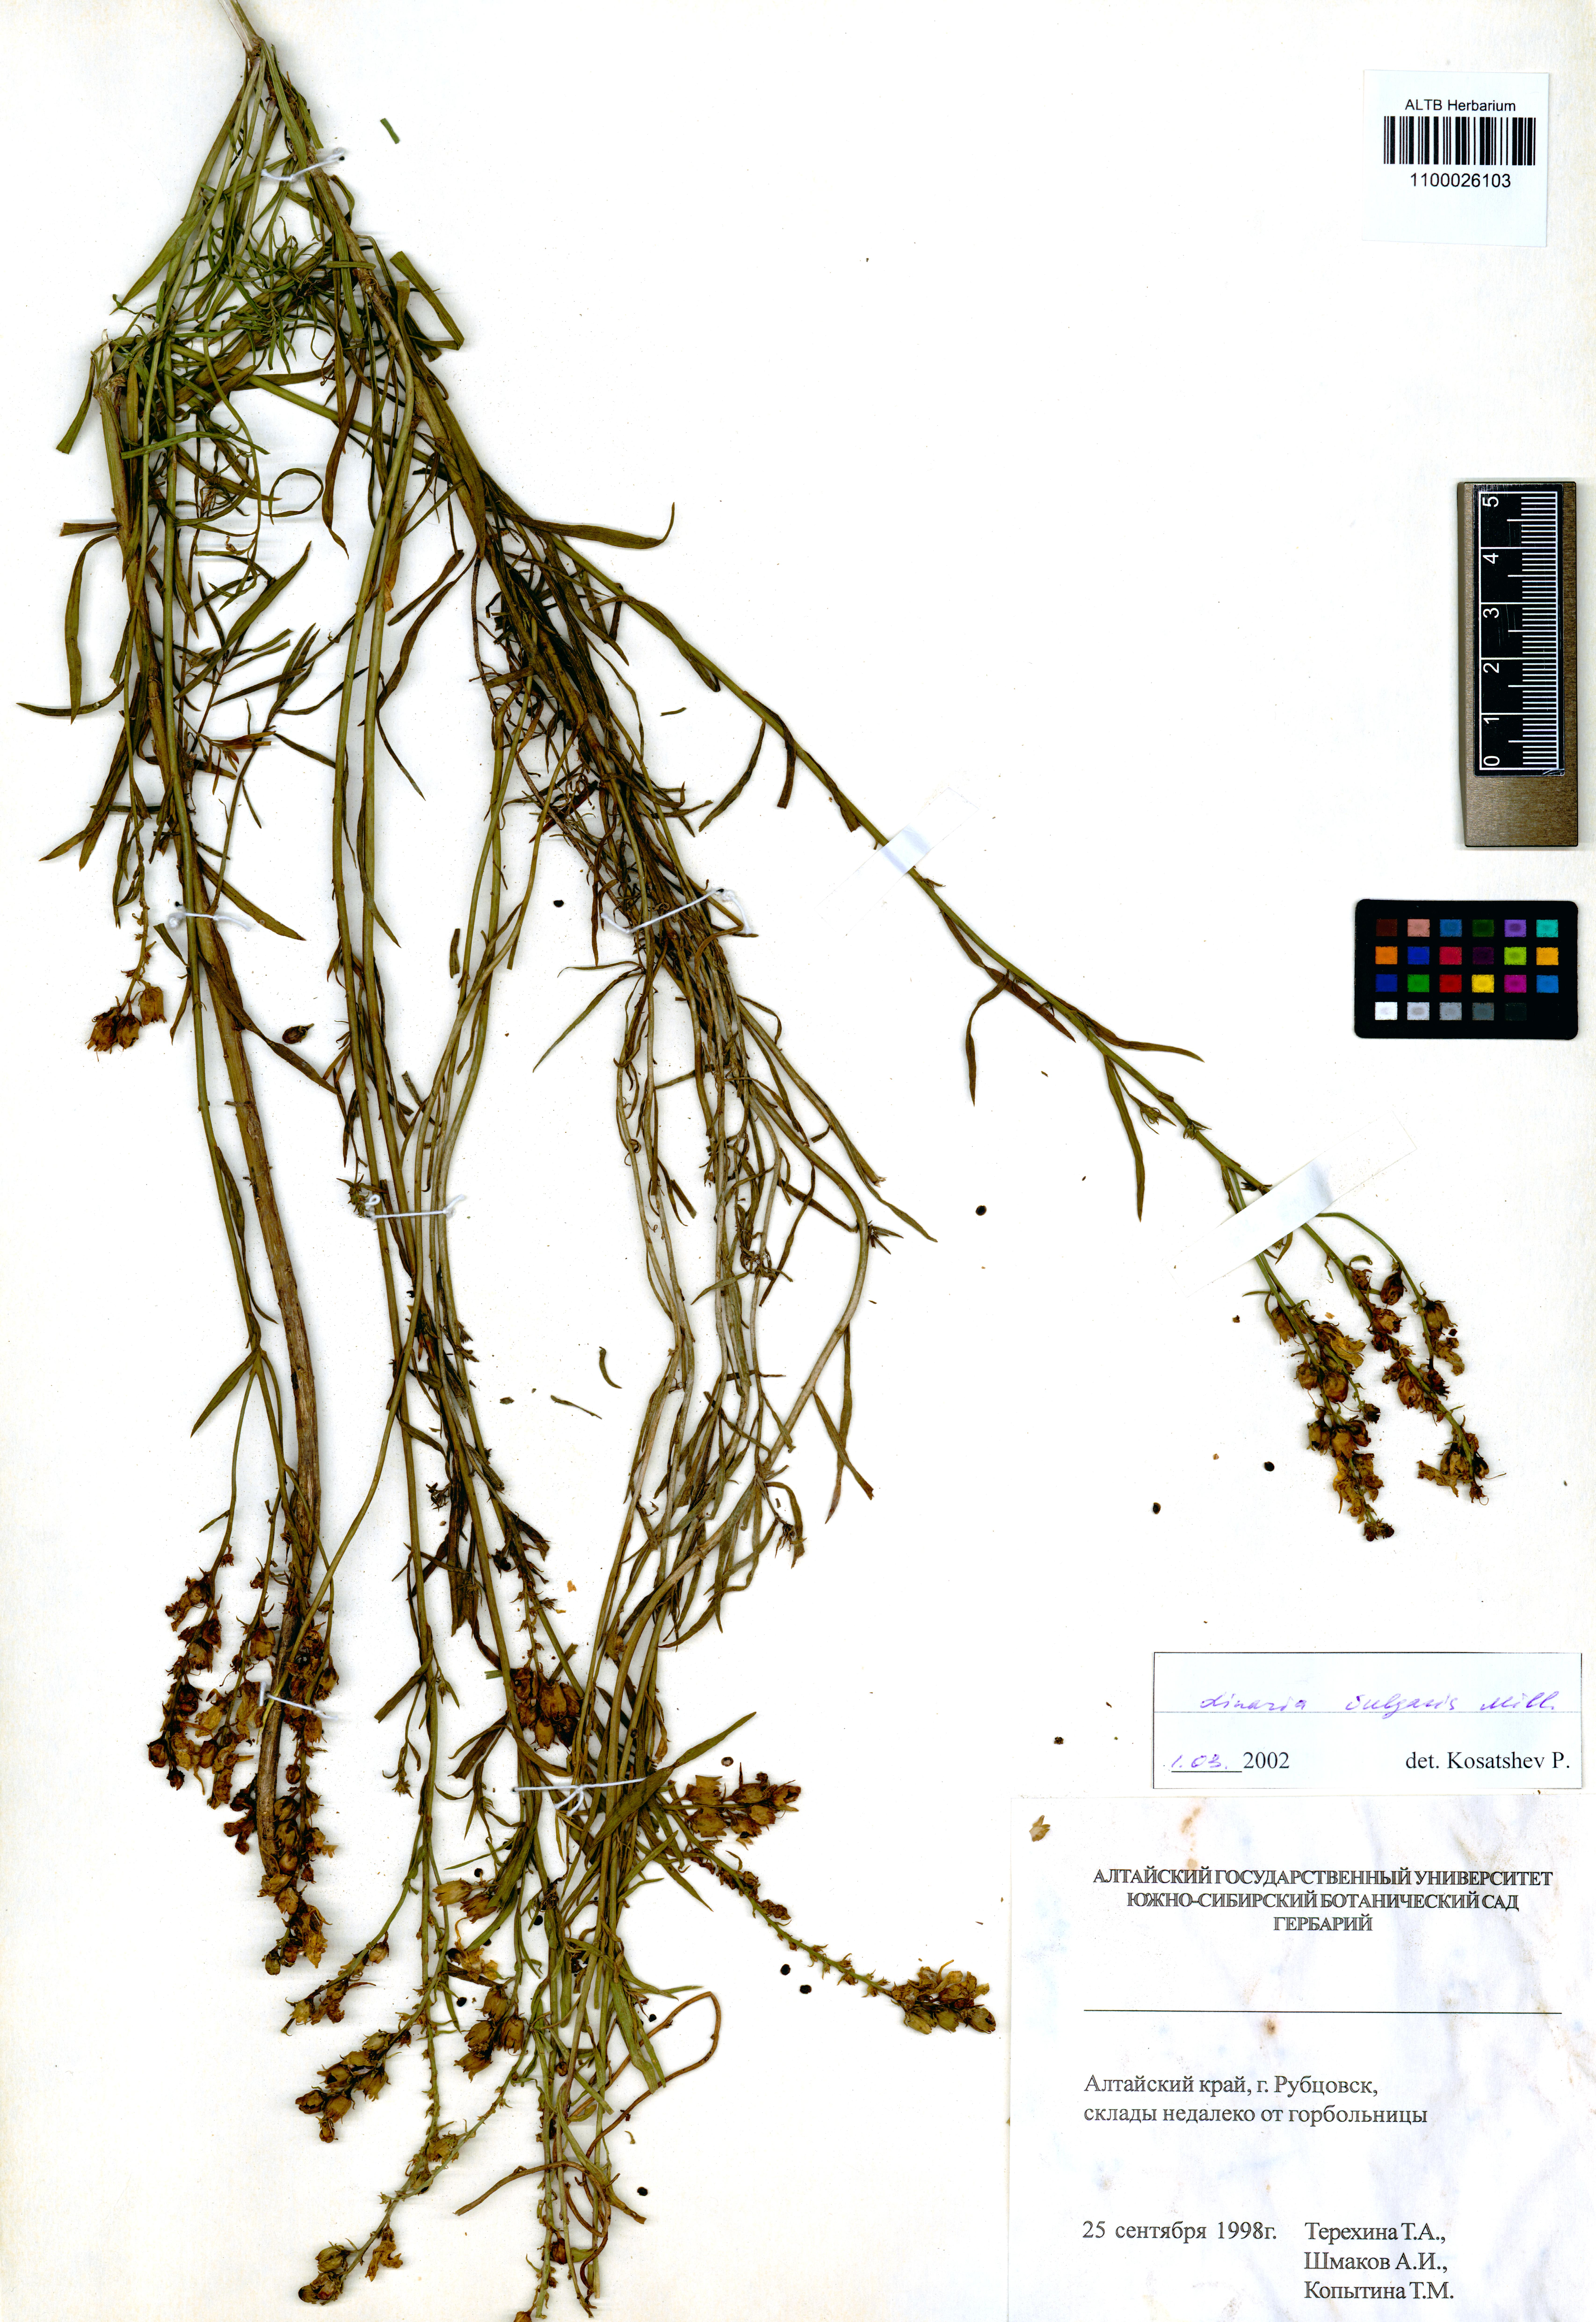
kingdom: Plantae
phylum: Tracheophyta
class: Magnoliopsida
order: Lamiales
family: Plantaginaceae
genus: Linaria
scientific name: Linaria vulgaris
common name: Butter and eggs
